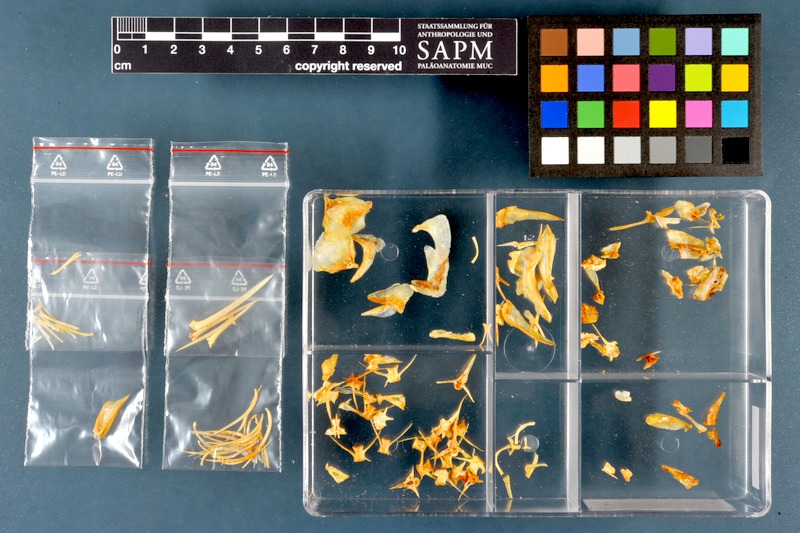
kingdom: Animalia
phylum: Chordata
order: Mugiliformes
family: Mugilidae
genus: Planiliza
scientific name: Planiliza abu
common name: Abu mullet
